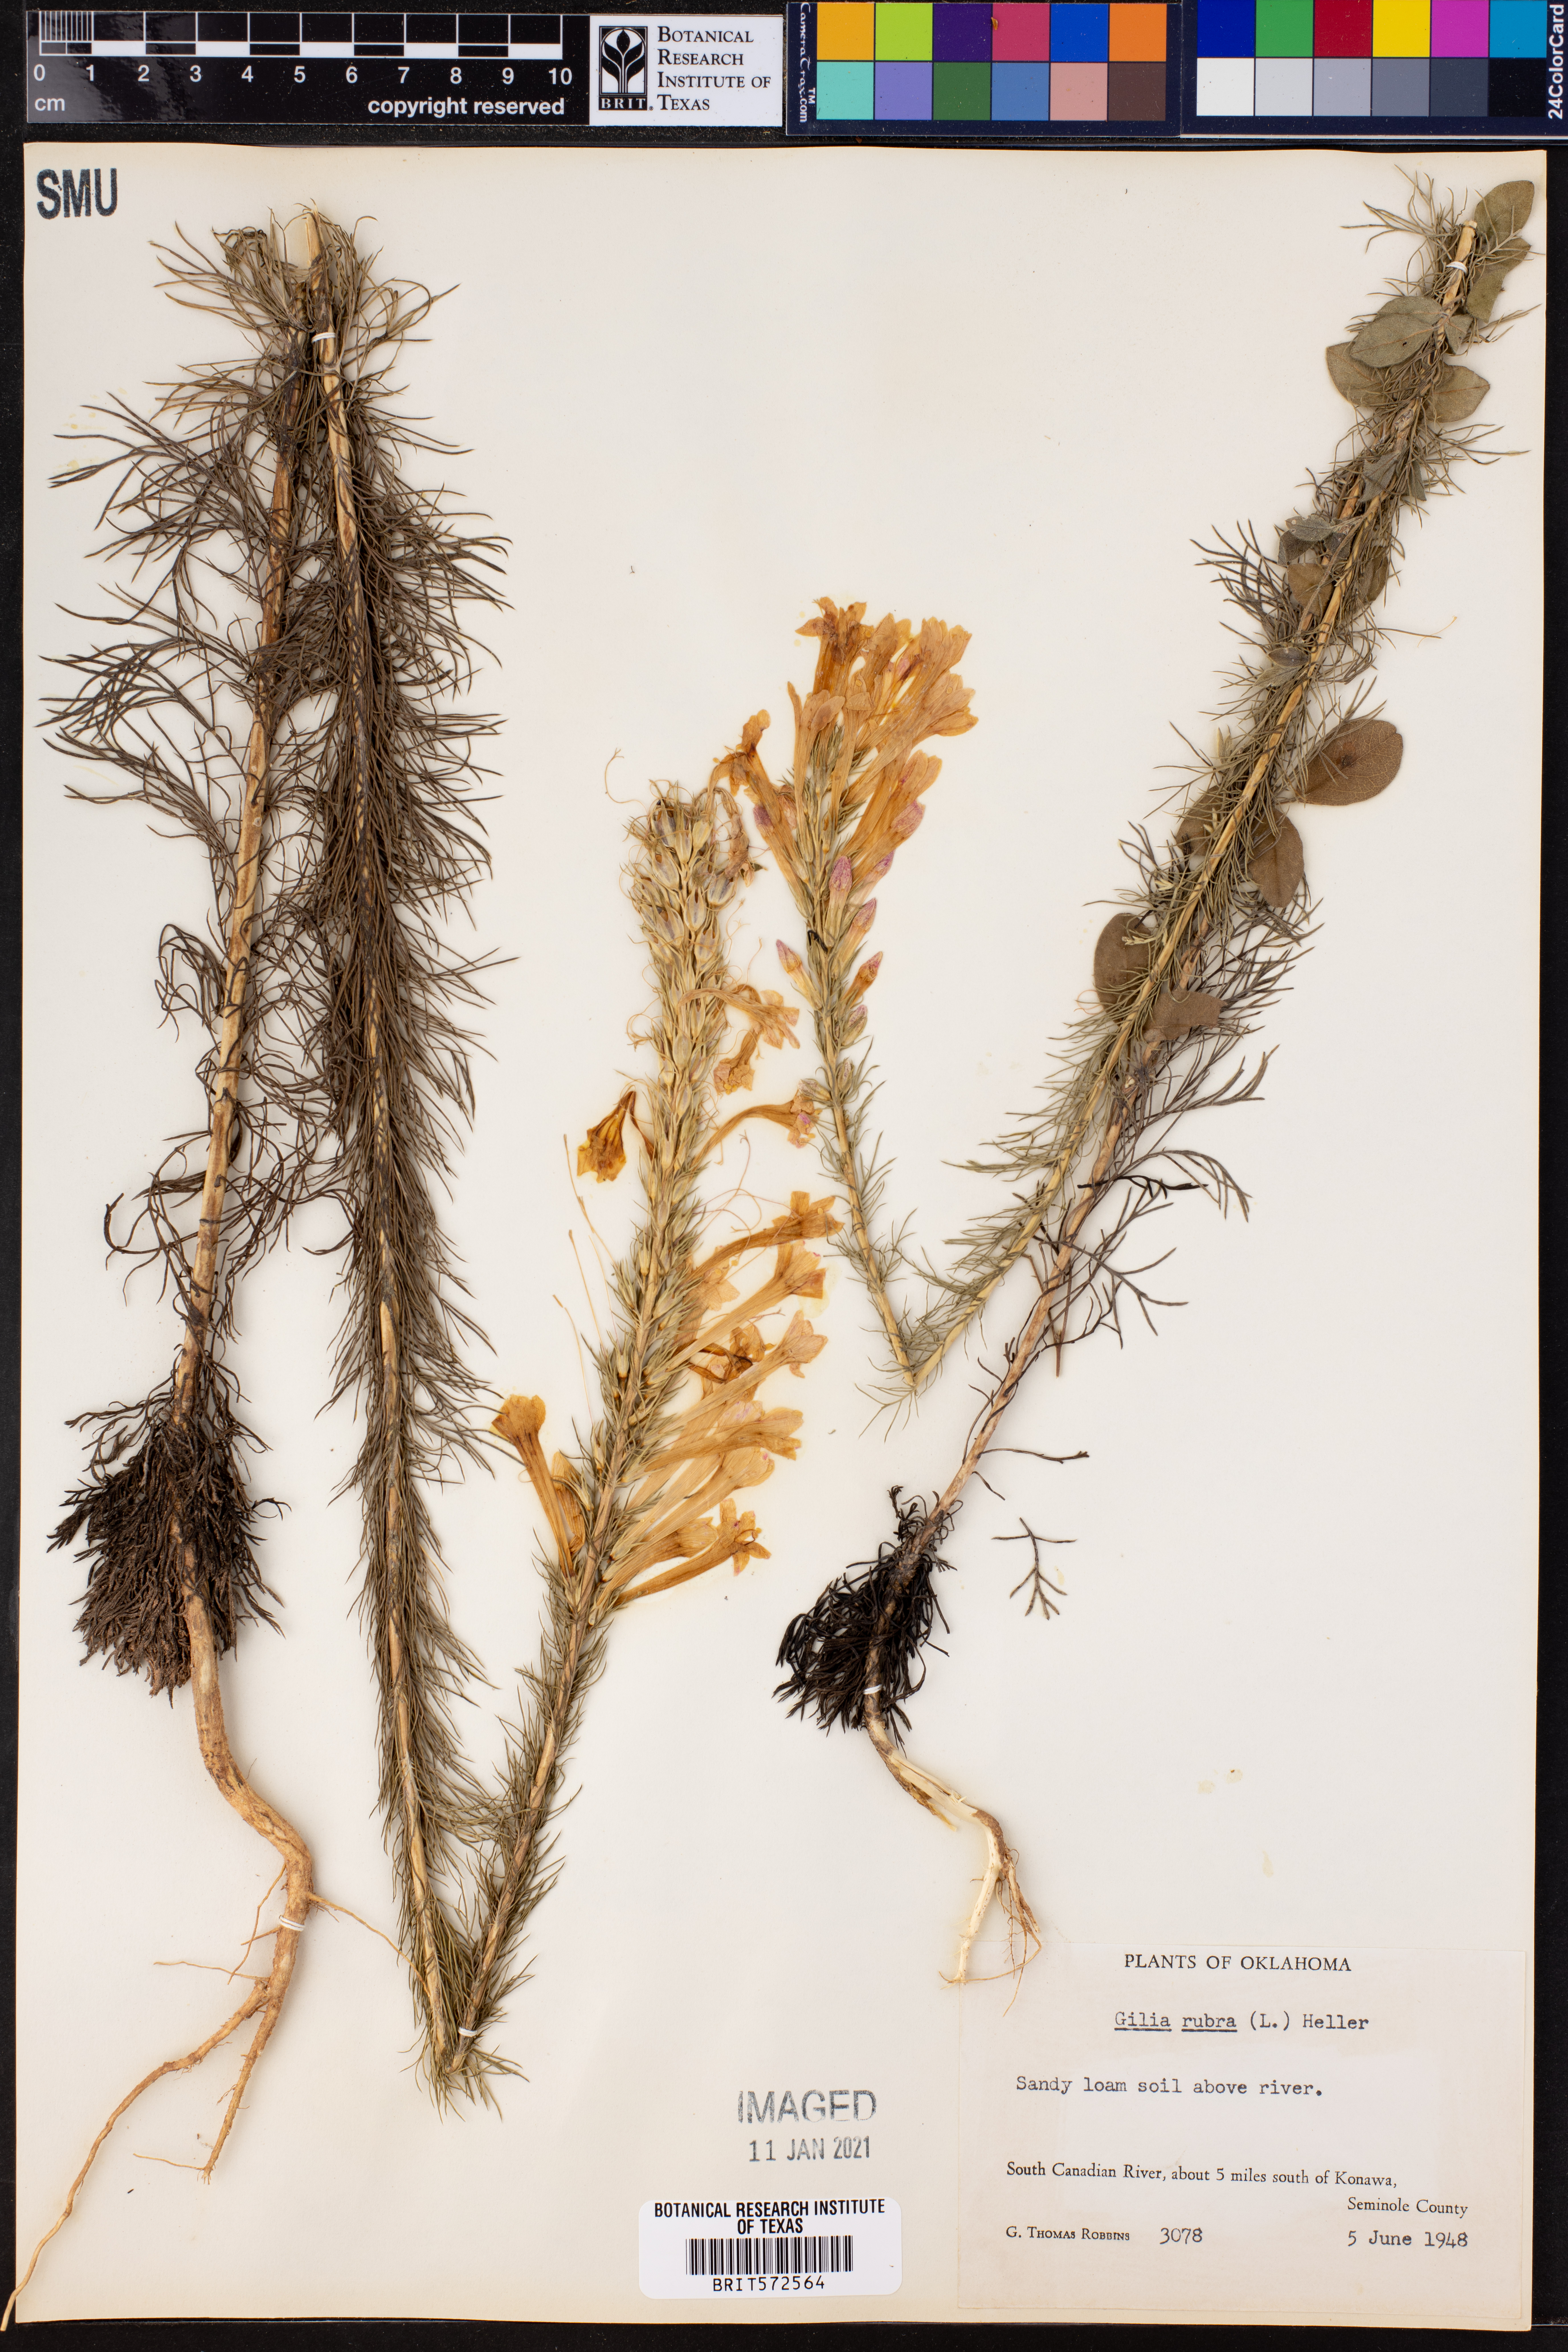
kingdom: Plantae
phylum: Tracheophyta
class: Magnoliopsida
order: Ericales
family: Polemoniaceae
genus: Ipomopsis
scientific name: Ipomopsis rubra
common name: Skyrocket
